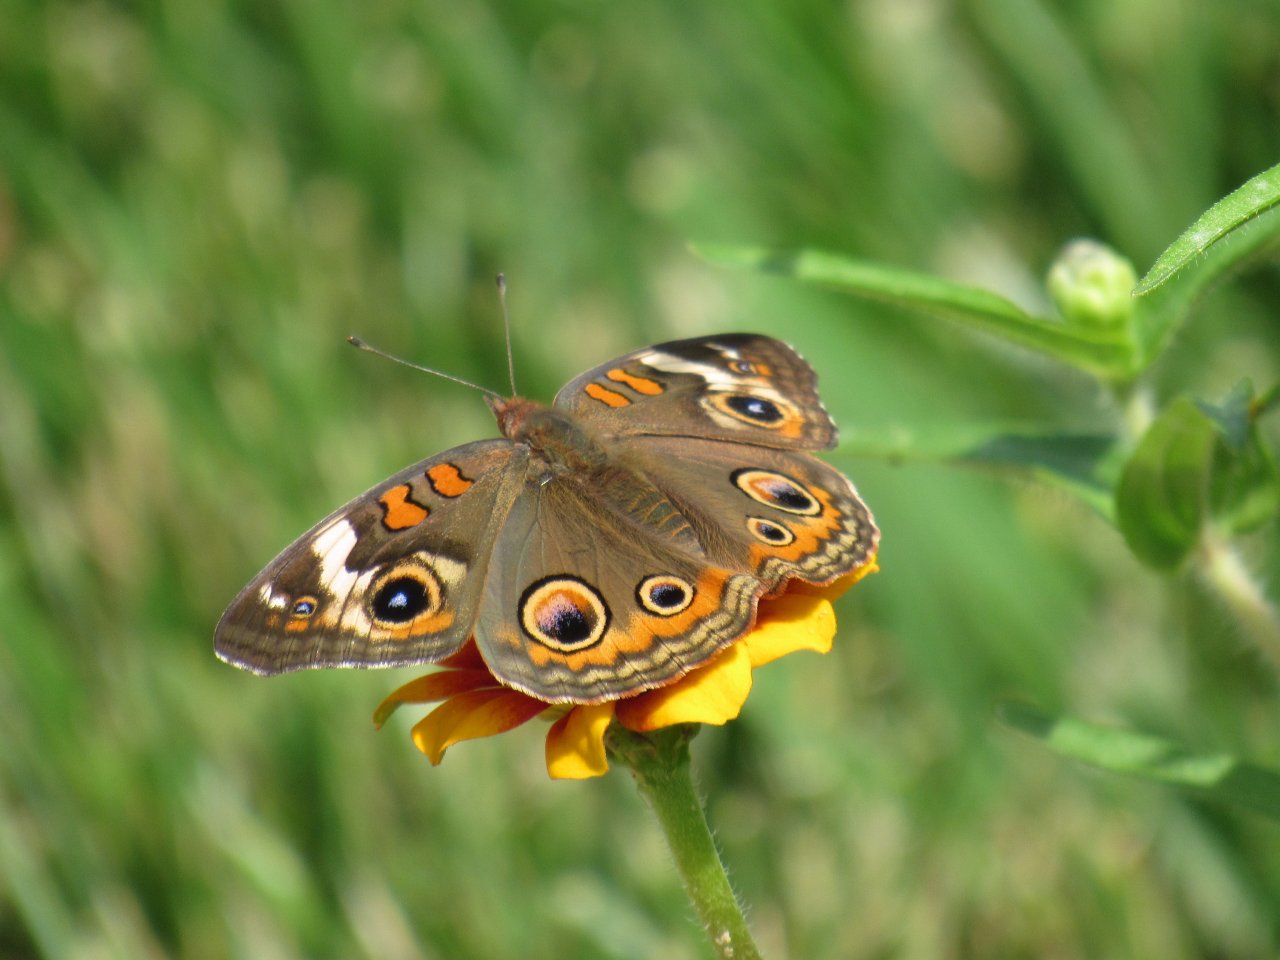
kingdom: Animalia
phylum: Arthropoda
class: Insecta
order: Lepidoptera
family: Nymphalidae
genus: Junonia
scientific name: Junonia coenia
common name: Common Buckeye
